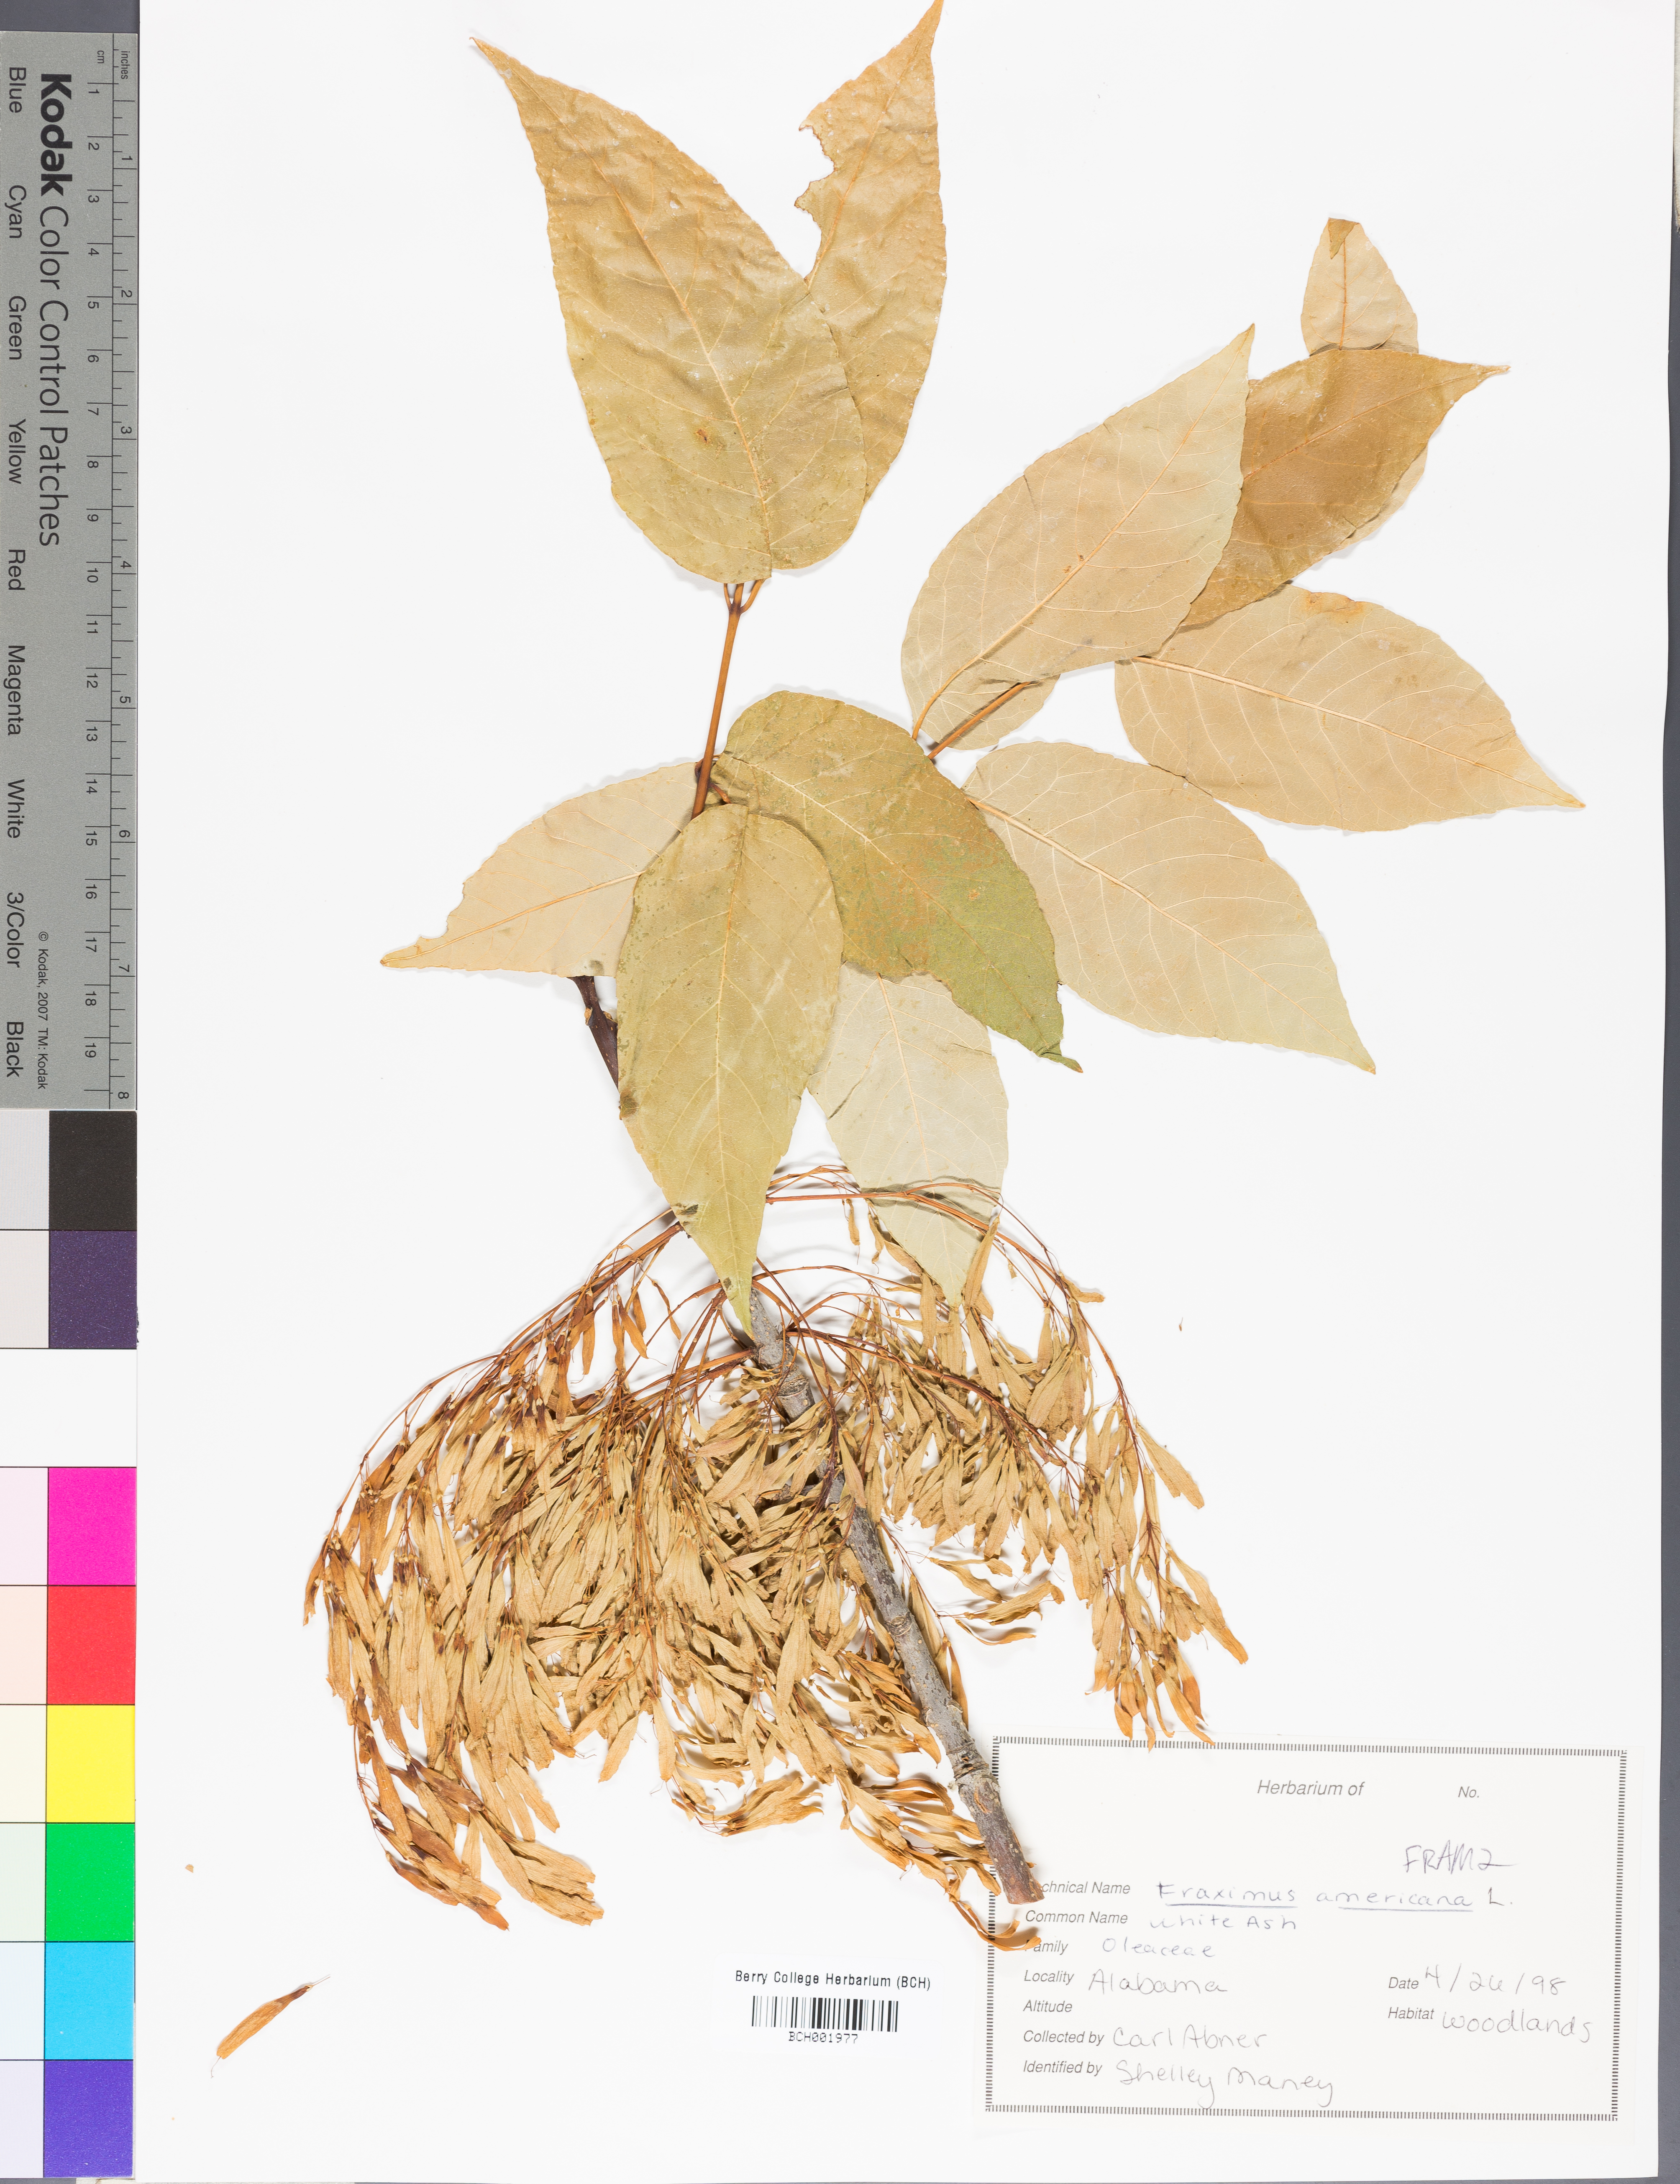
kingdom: Plantae
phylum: Tracheophyta
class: Magnoliopsida
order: Lamiales
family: Oleaceae
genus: Fraxinus
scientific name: Fraxinus americana
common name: White ash
